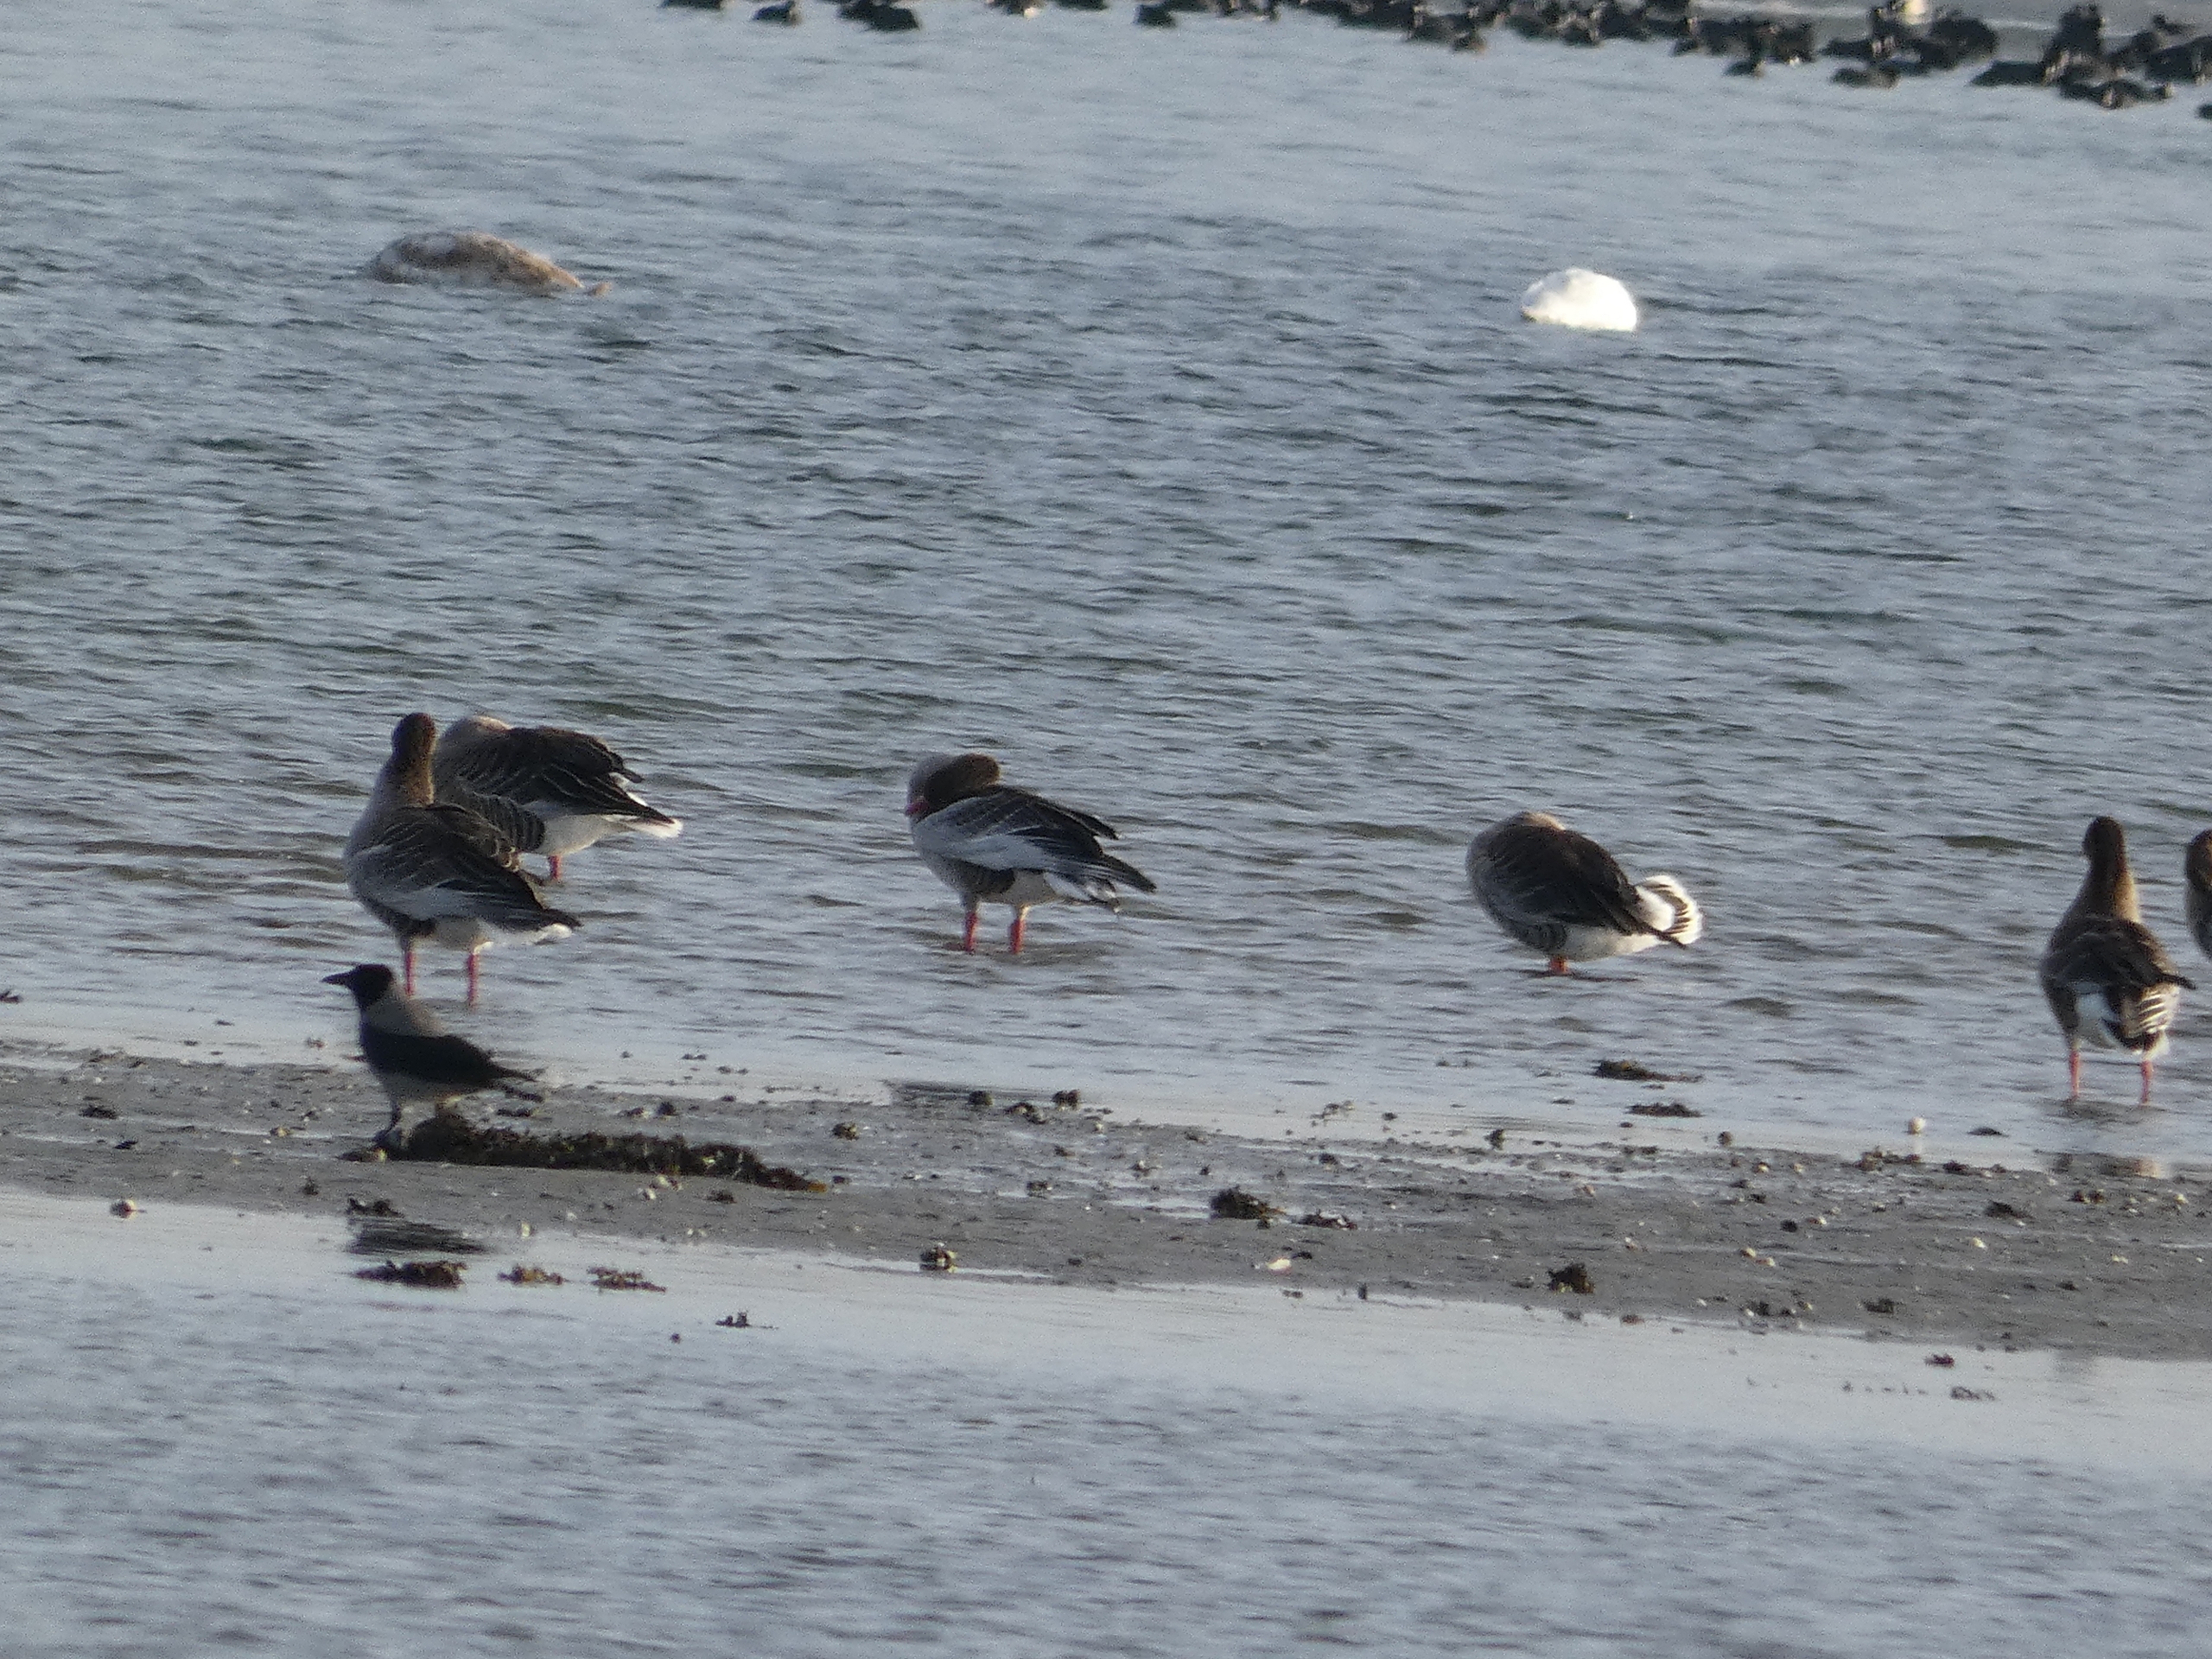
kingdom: Animalia
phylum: Chordata
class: Aves
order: Passeriformes
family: Corvidae
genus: Corvus
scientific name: Corvus cornix
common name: Gråkrage
